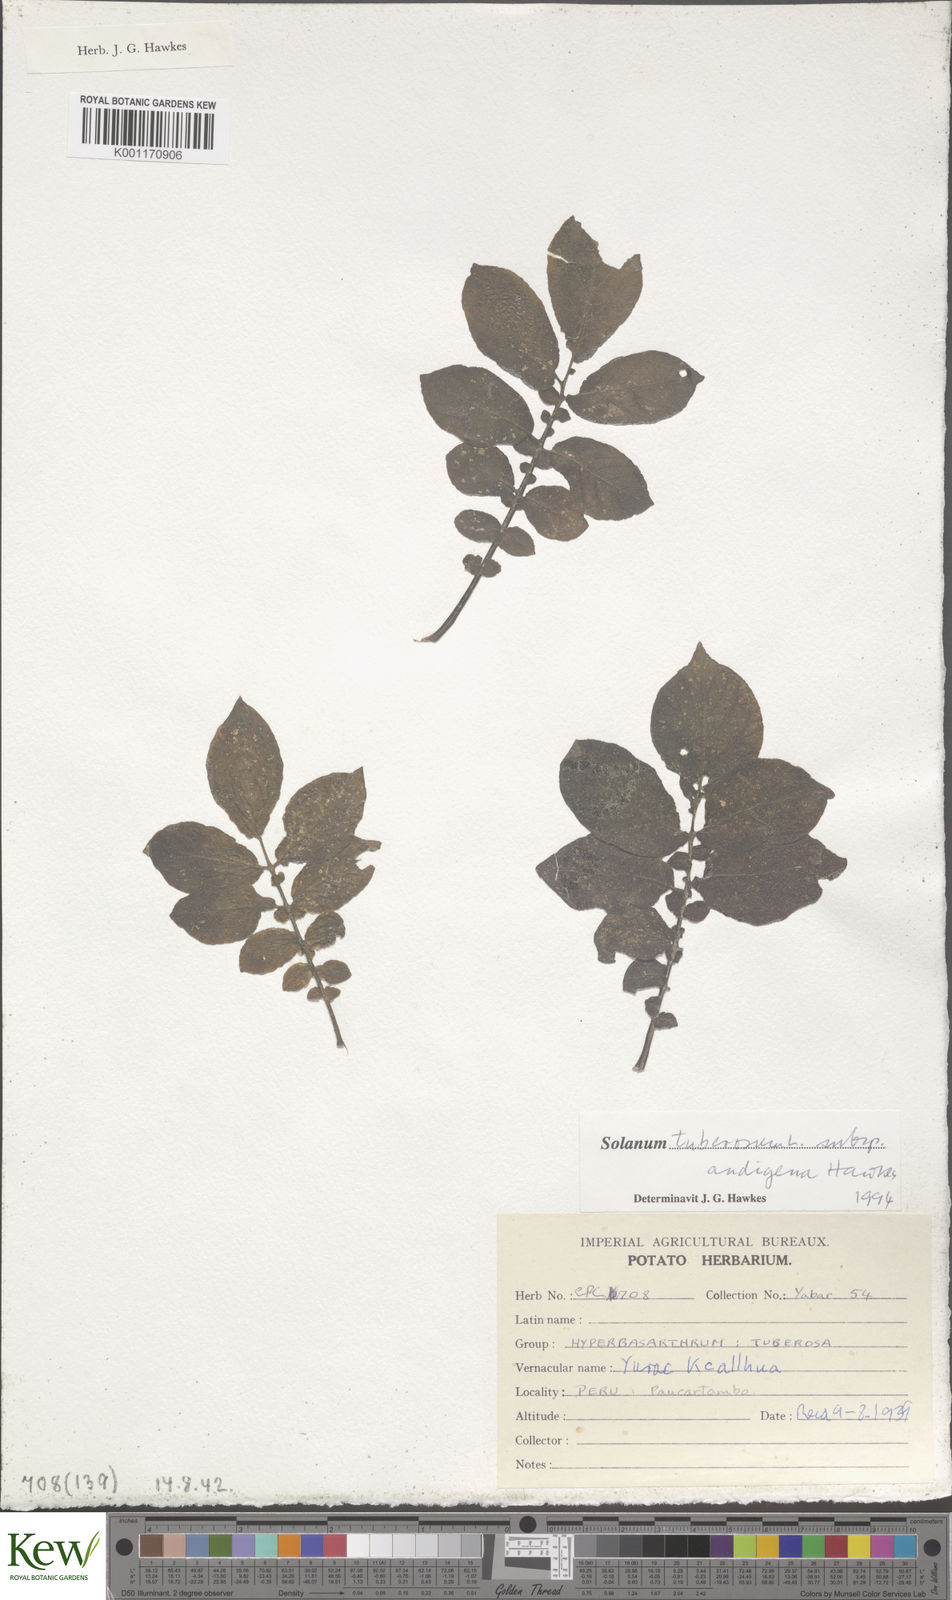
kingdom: Plantae
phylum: Tracheophyta
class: Magnoliopsida
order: Solanales
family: Solanaceae
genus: Solanum
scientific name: Solanum tuberosum
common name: Potato
